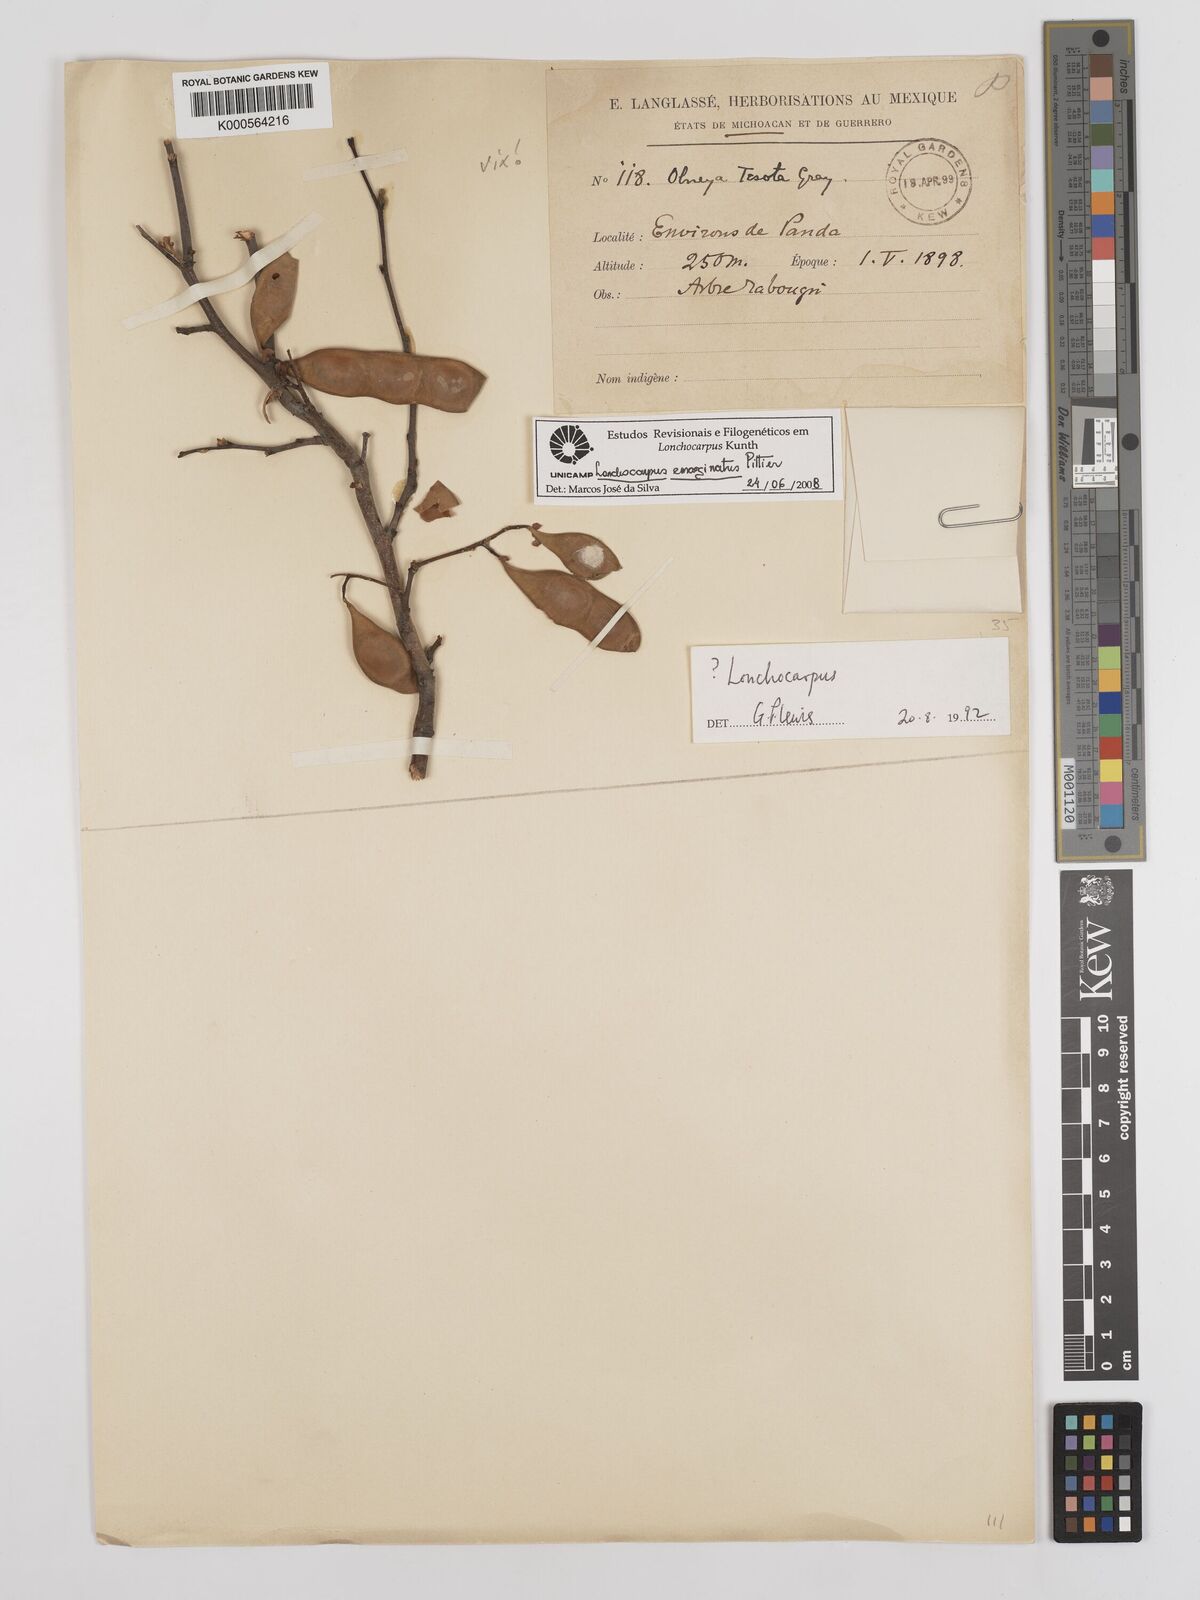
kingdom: Plantae
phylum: Tracheophyta
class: Magnoliopsida
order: Fabales
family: Fabaceae
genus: Lonchocarpus
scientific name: Lonchocarpus emarginatus
